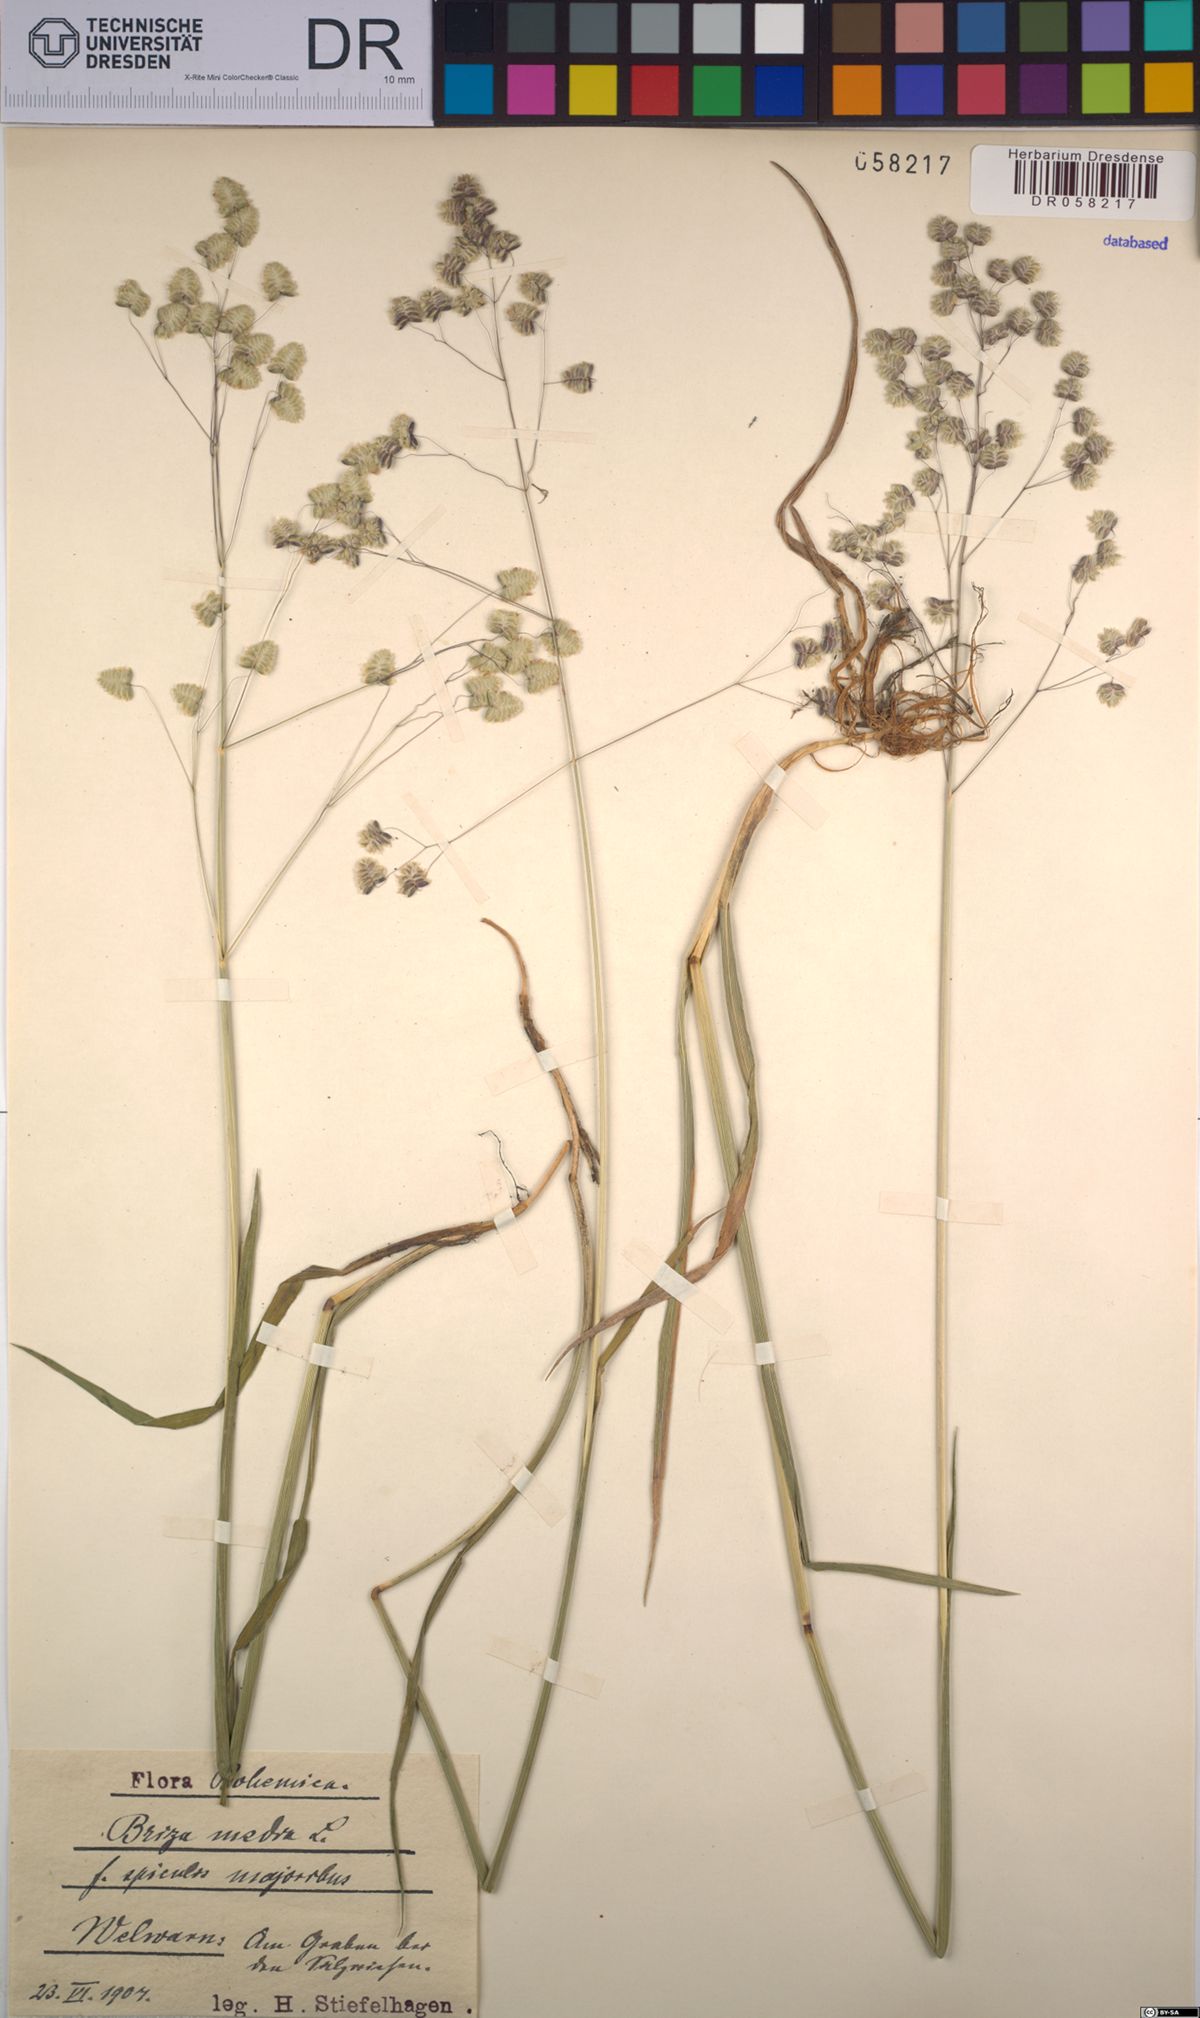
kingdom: Plantae
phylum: Tracheophyta
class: Liliopsida
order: Poales
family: Poaceae
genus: Briza
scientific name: Briza media
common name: Quaking grass
